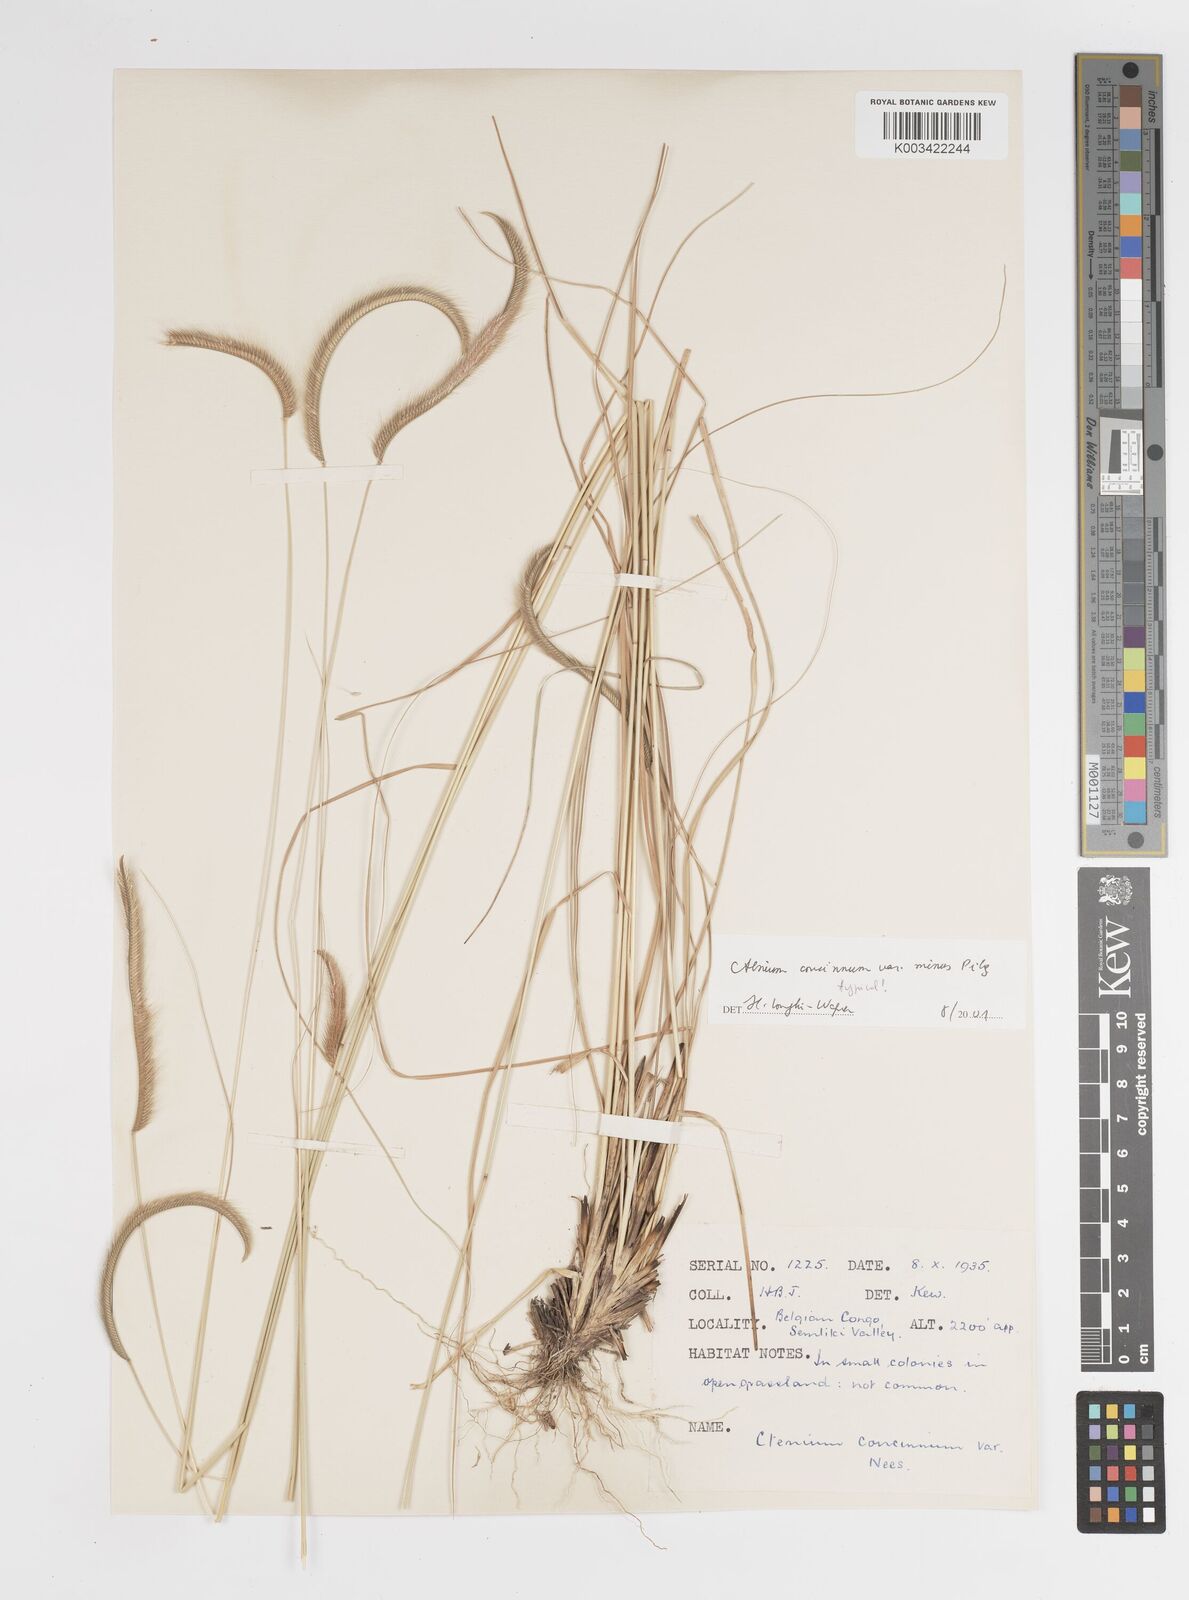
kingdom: Plantae
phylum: Tracheophyta
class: Liliopsida
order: Poales
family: Poaceae
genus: Ctenium
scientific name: Ctenium concinnum
